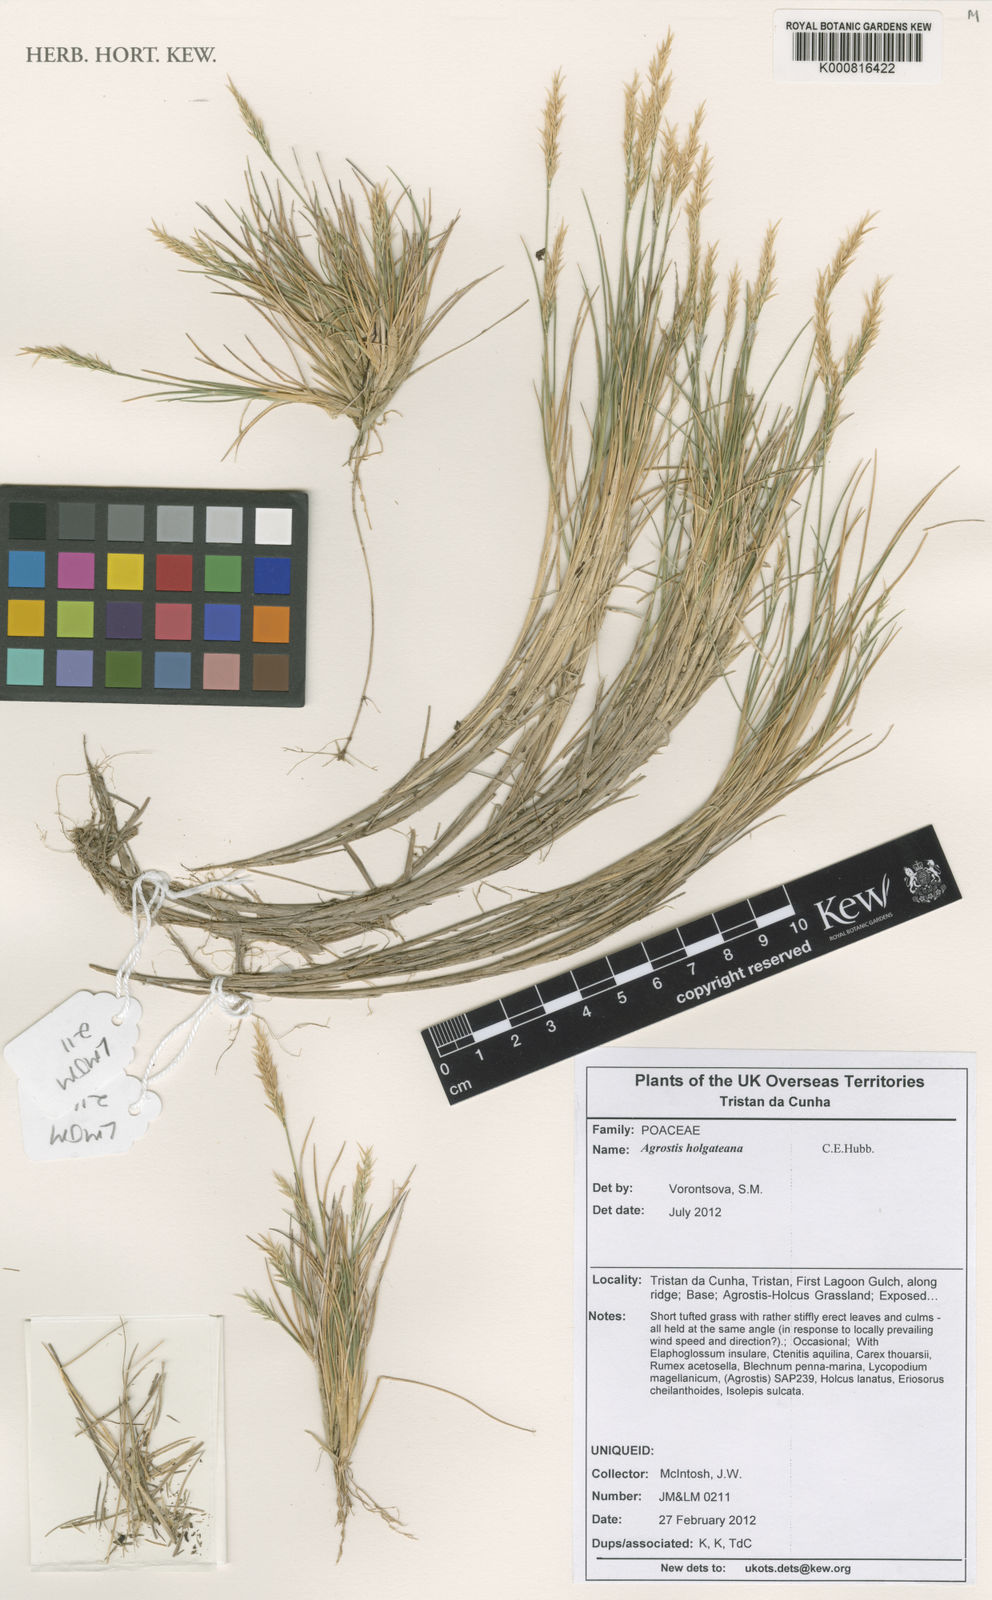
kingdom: Plantae
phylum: Tracheophyta
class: Liliopsida
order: Poales
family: Poaceae
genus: Agrostis
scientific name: Agrostis holgateana
